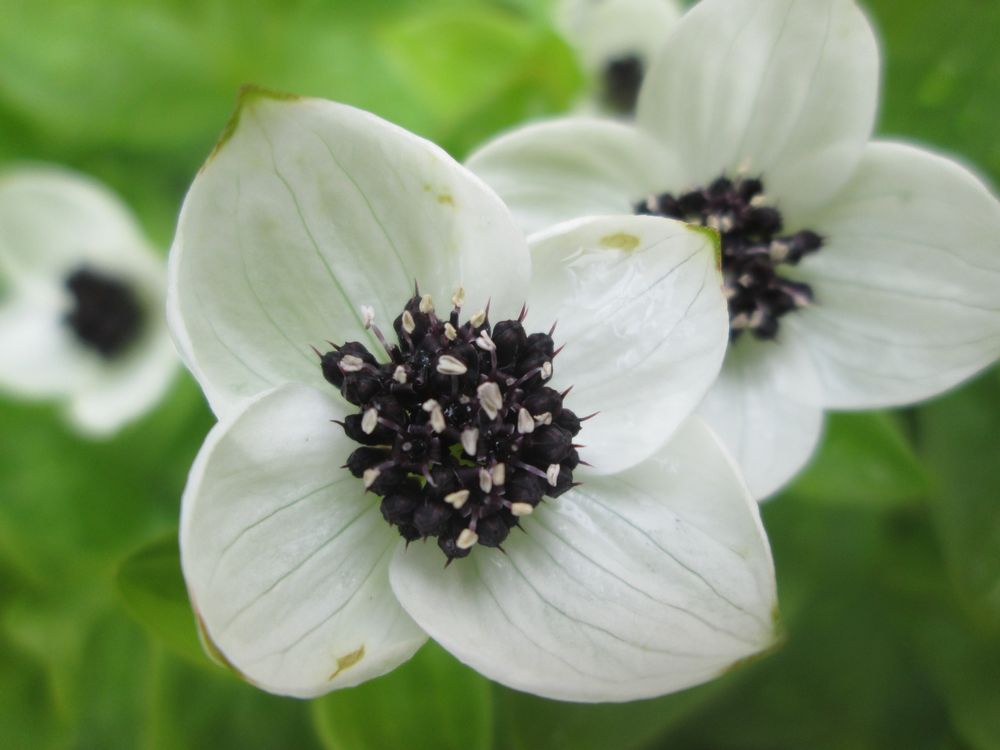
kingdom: Plantae
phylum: Tracheophyta
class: Magnoliopsida
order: Cornales
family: Cornaceae
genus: Cornus
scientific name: Cornus suecica
